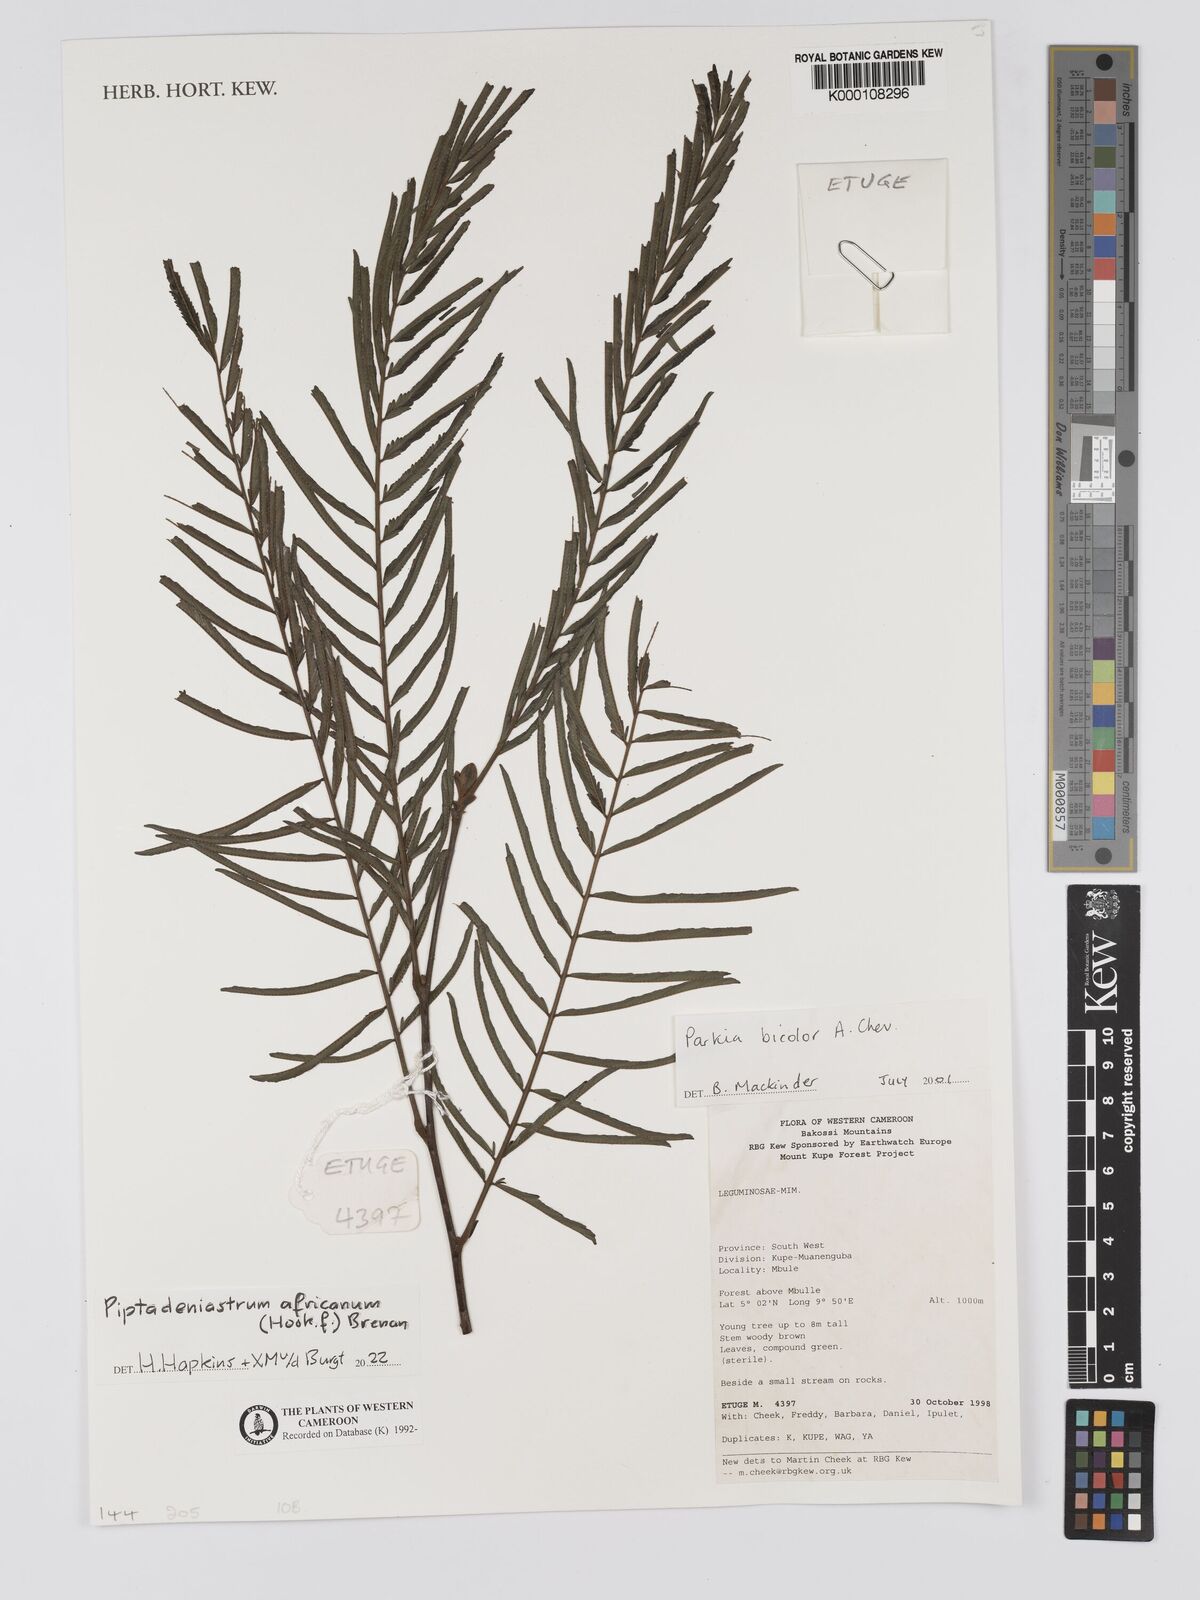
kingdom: Plantae
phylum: Tracheophyta
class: Magnoliopsida
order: Fabales
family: Fabaceae
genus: Parkia
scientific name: Parkia bicolor
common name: African locust-bean
